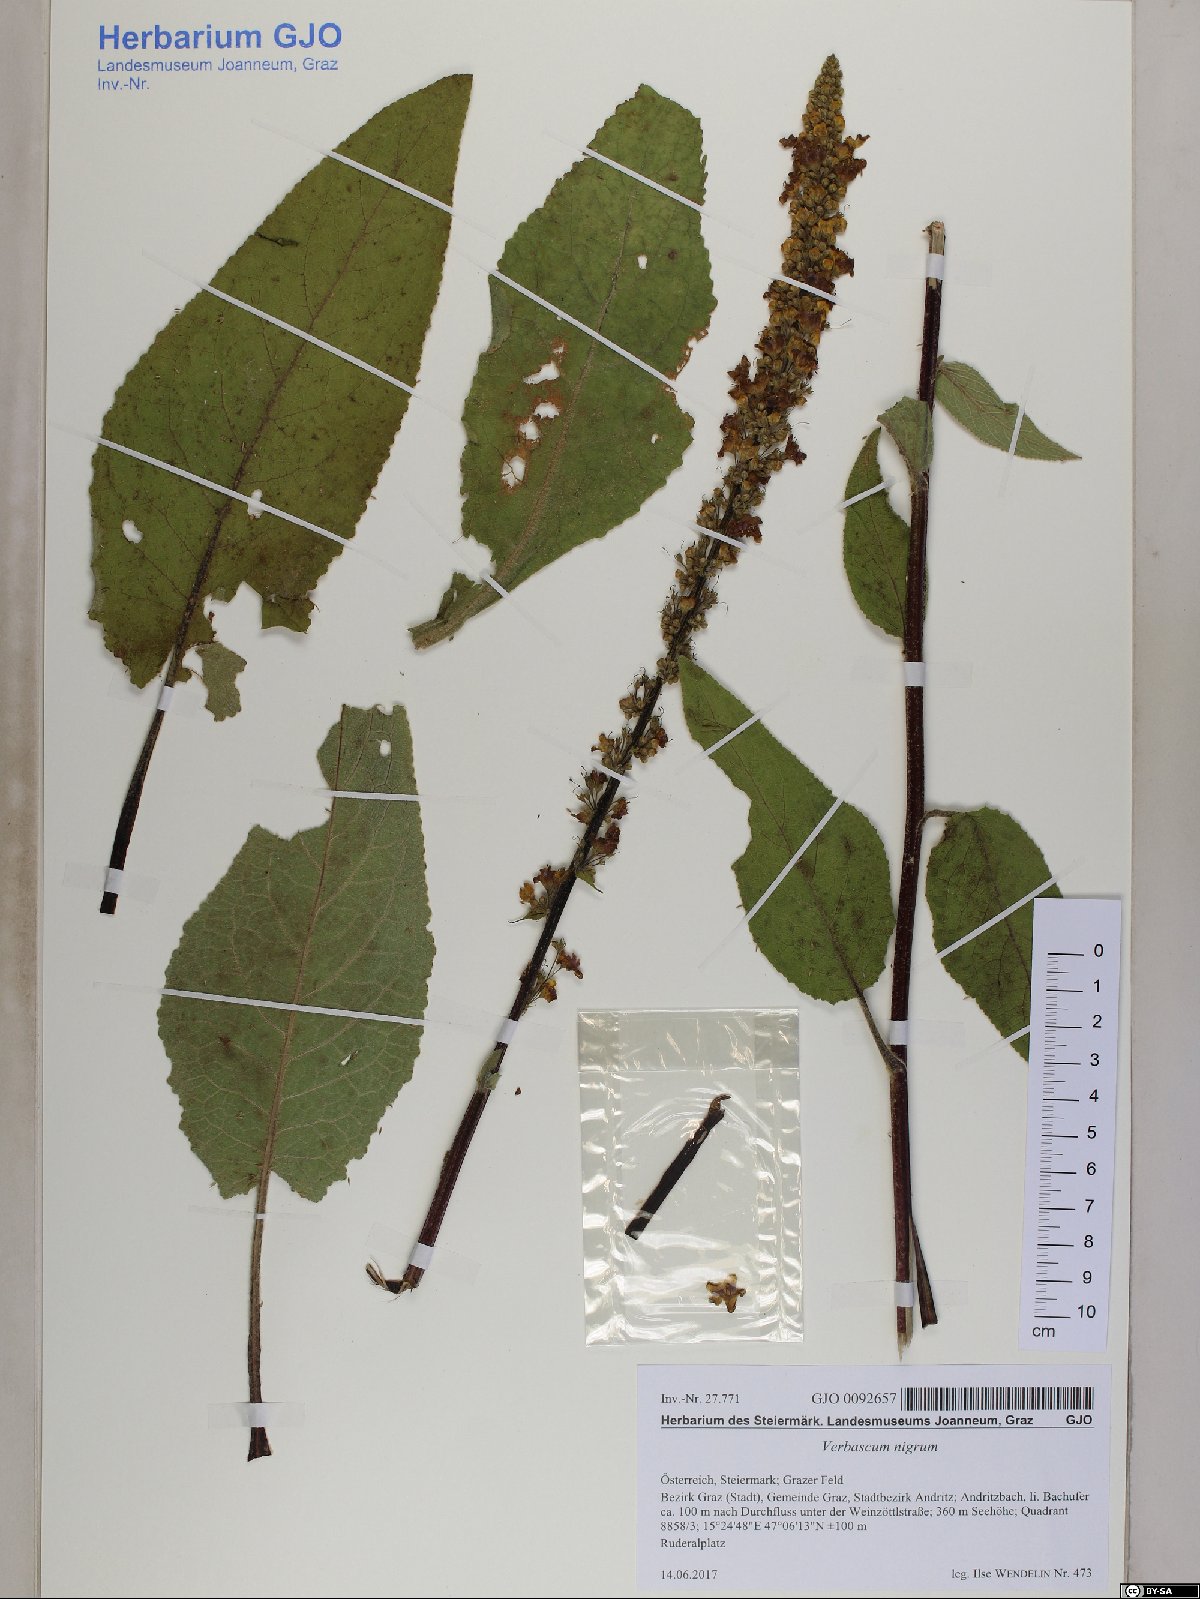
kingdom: Plantae
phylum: Tracheophyta
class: Magnoliopsida
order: Lamiales
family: Scrophulariaceae
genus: Verbascum
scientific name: Verbascum nigrum
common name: Dark mullein
